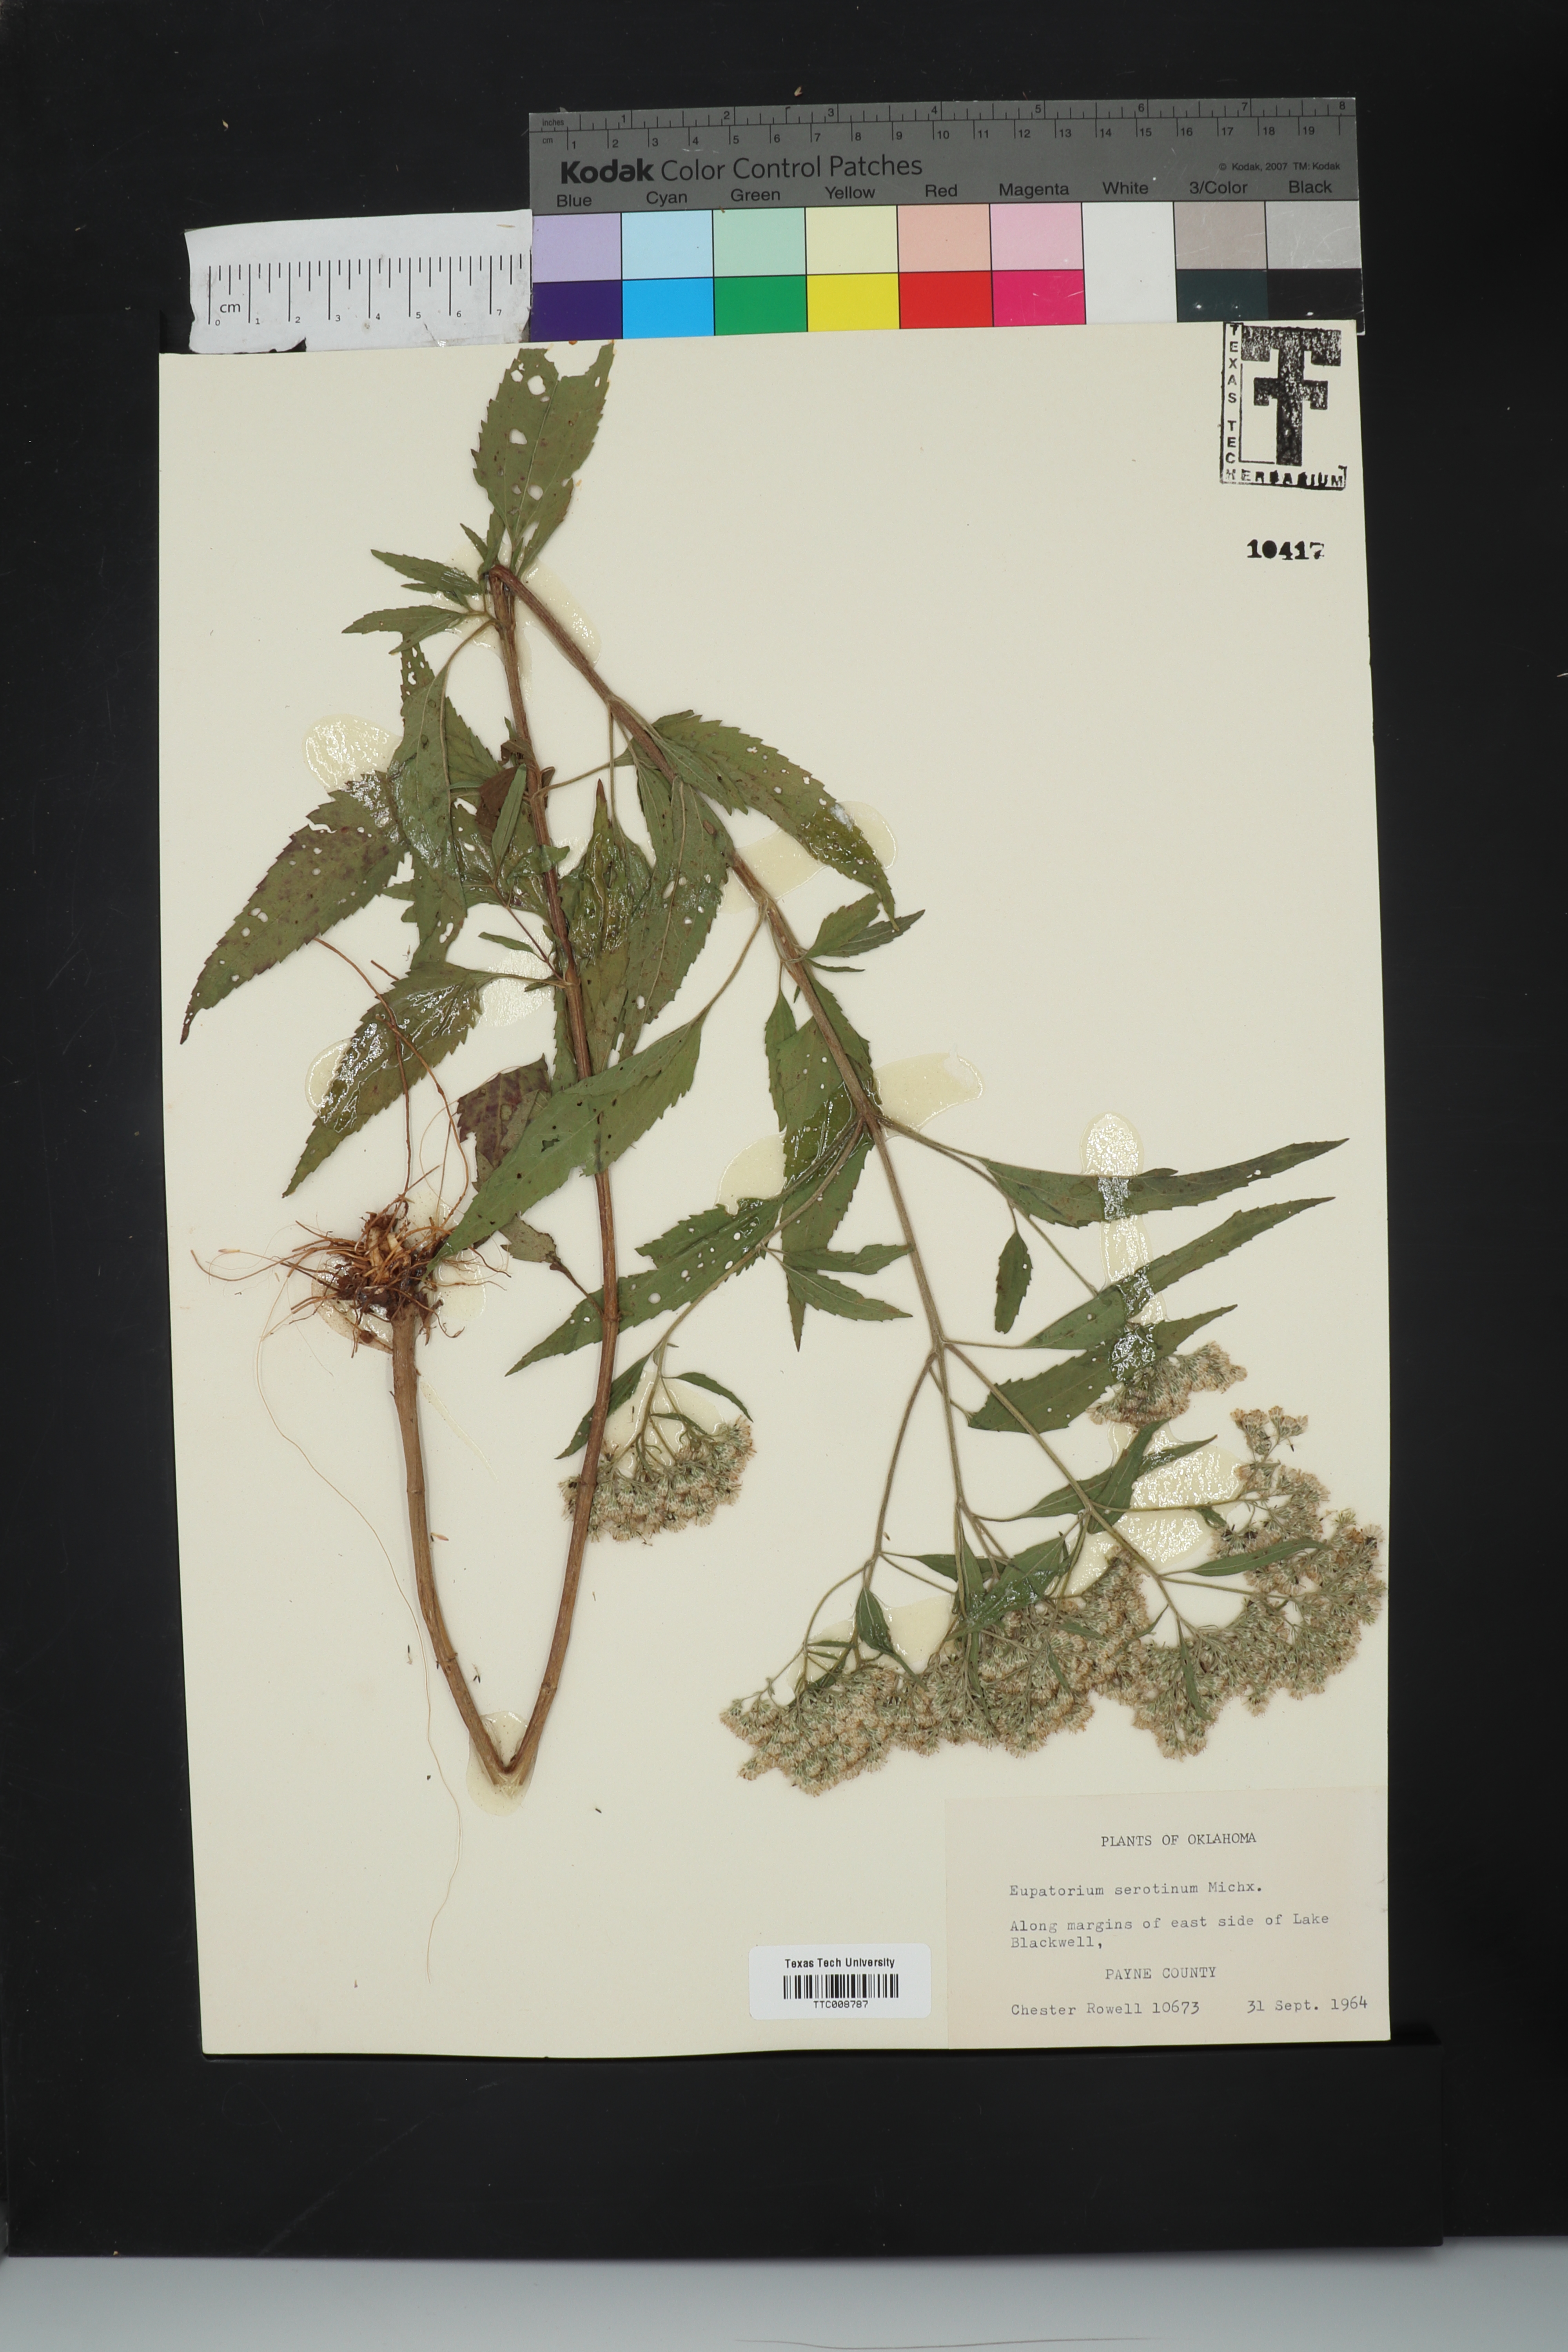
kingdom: Plantae
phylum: Tracheophyta
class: Magnoliopsida
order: Asterales
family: Asteraceae
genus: Eupatorium
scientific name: Eupatorium serotinum
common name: Late boneset
